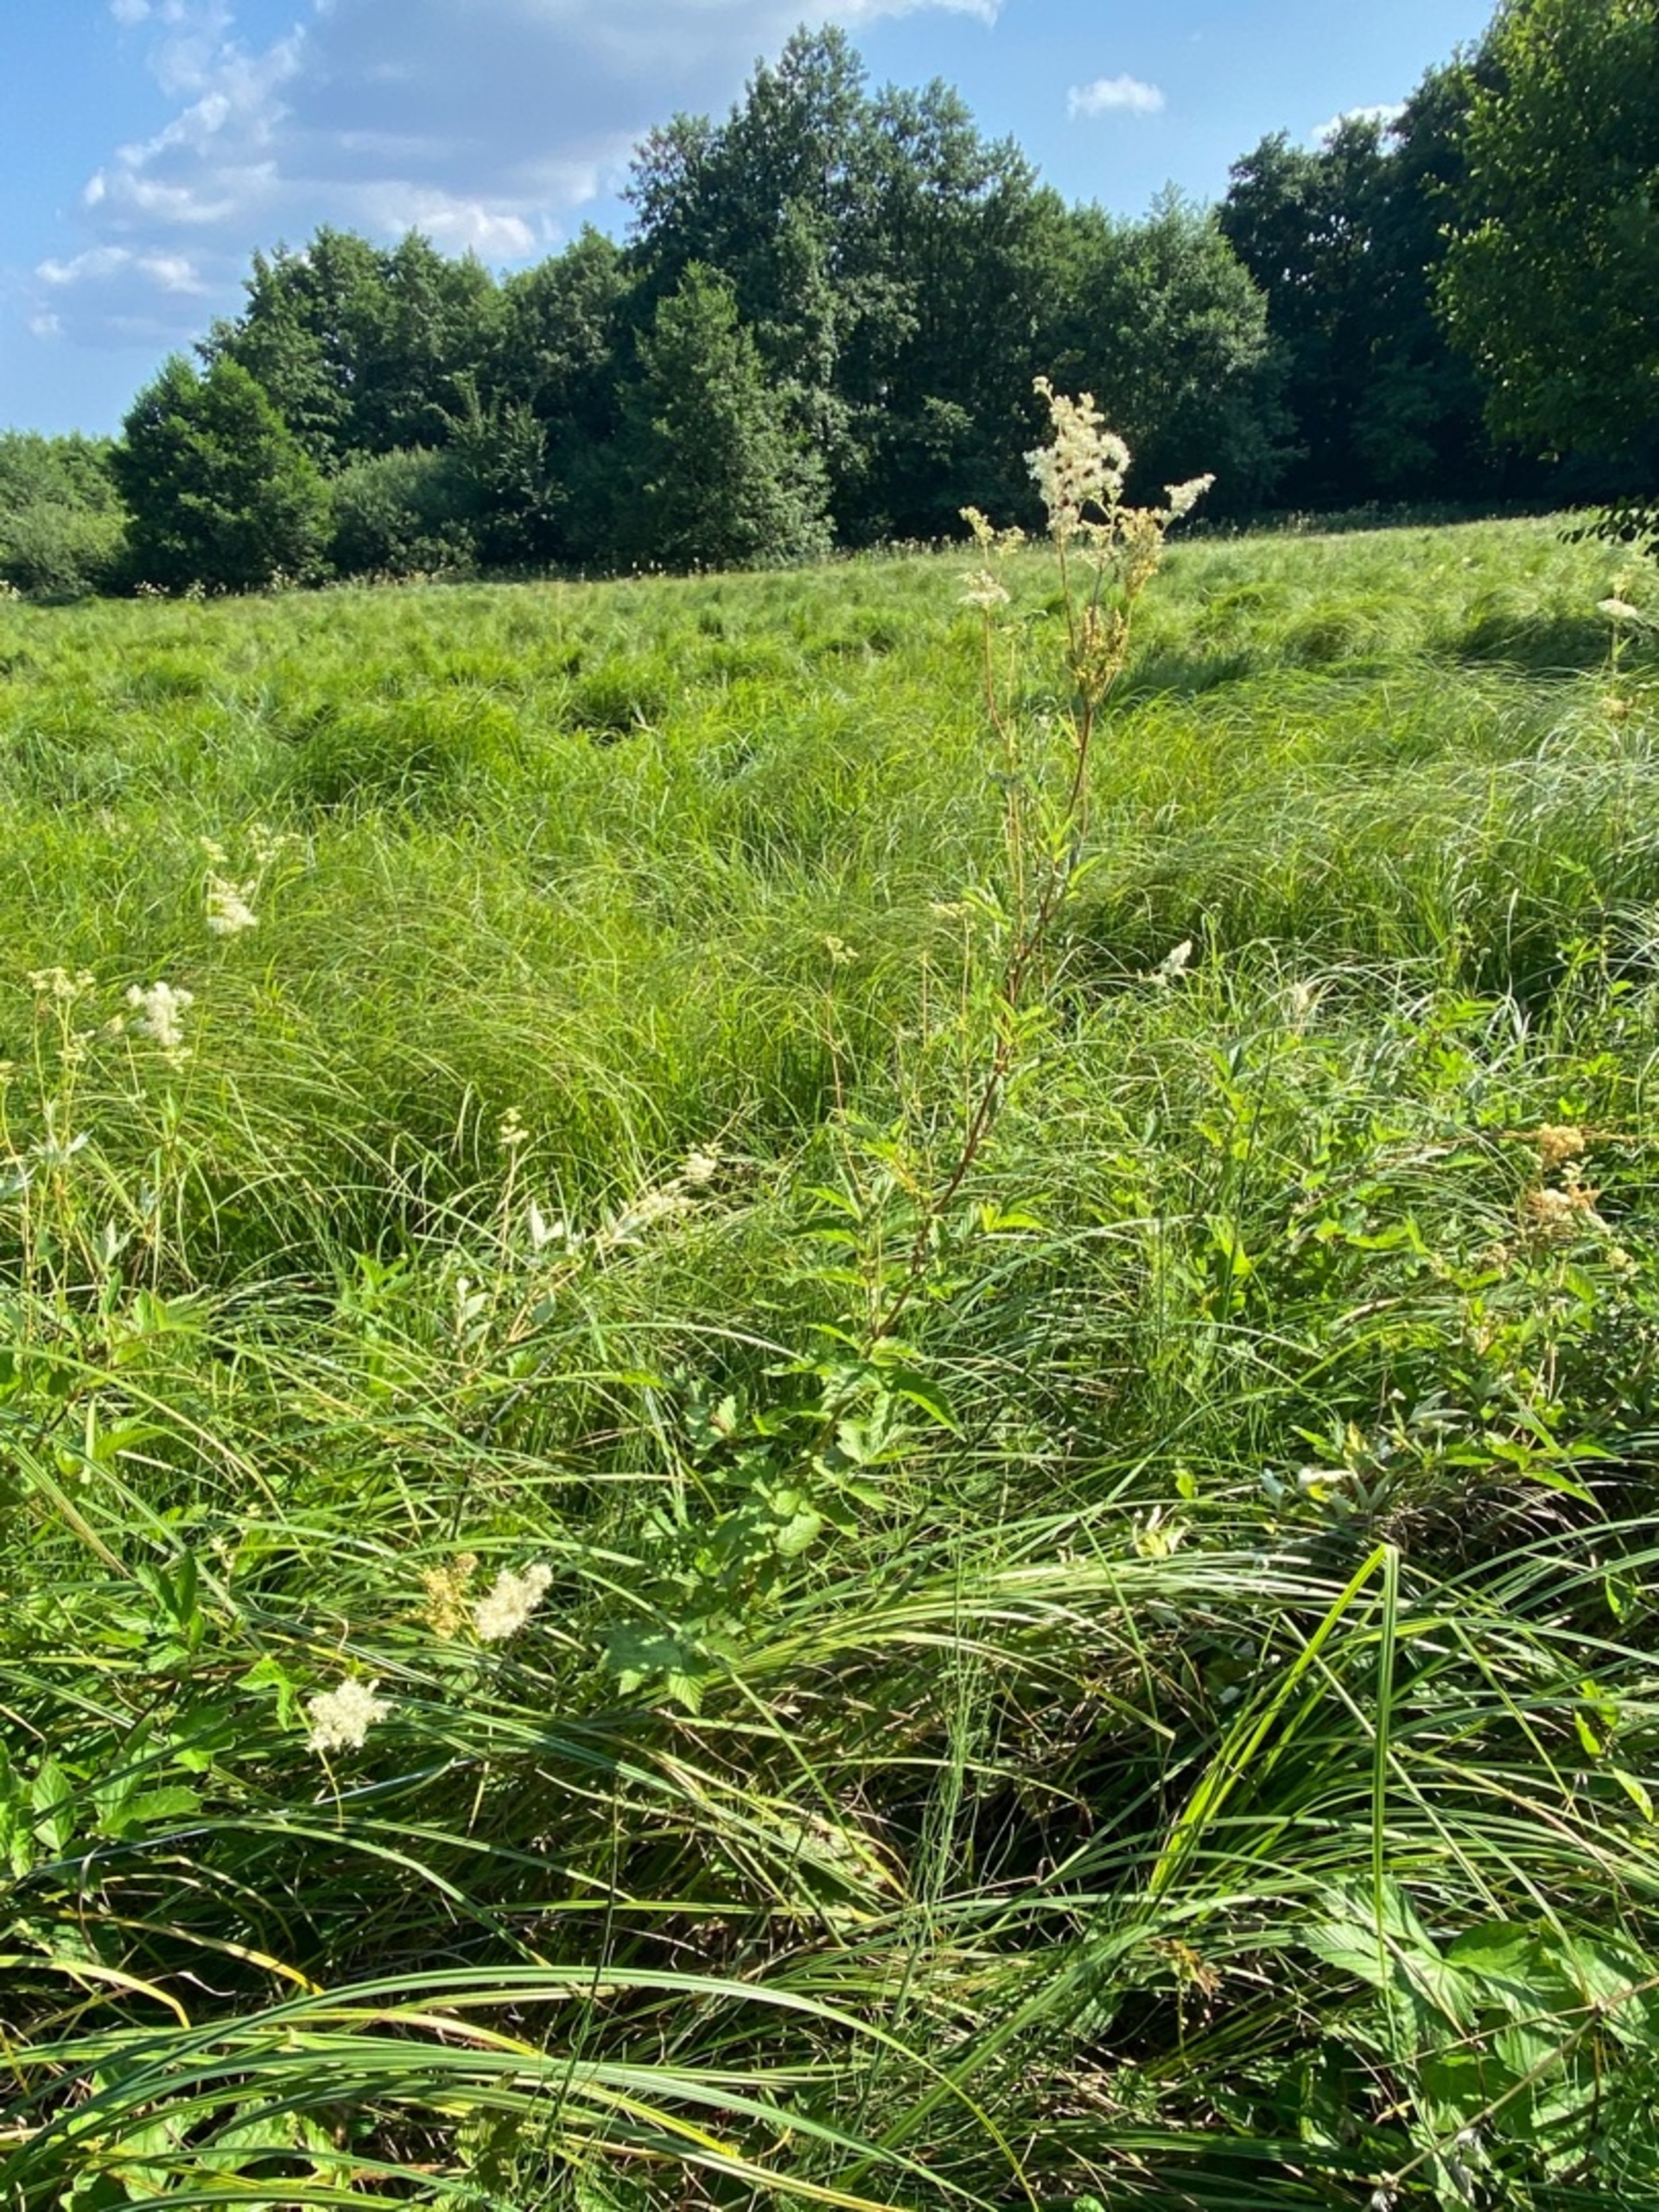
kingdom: Plantae
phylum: Tracheophyta
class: Magnoliopsida
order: Rosales
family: Rosaceae
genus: Filipendula
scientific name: Filipendula ulmaria
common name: Almindelig mjødurt
